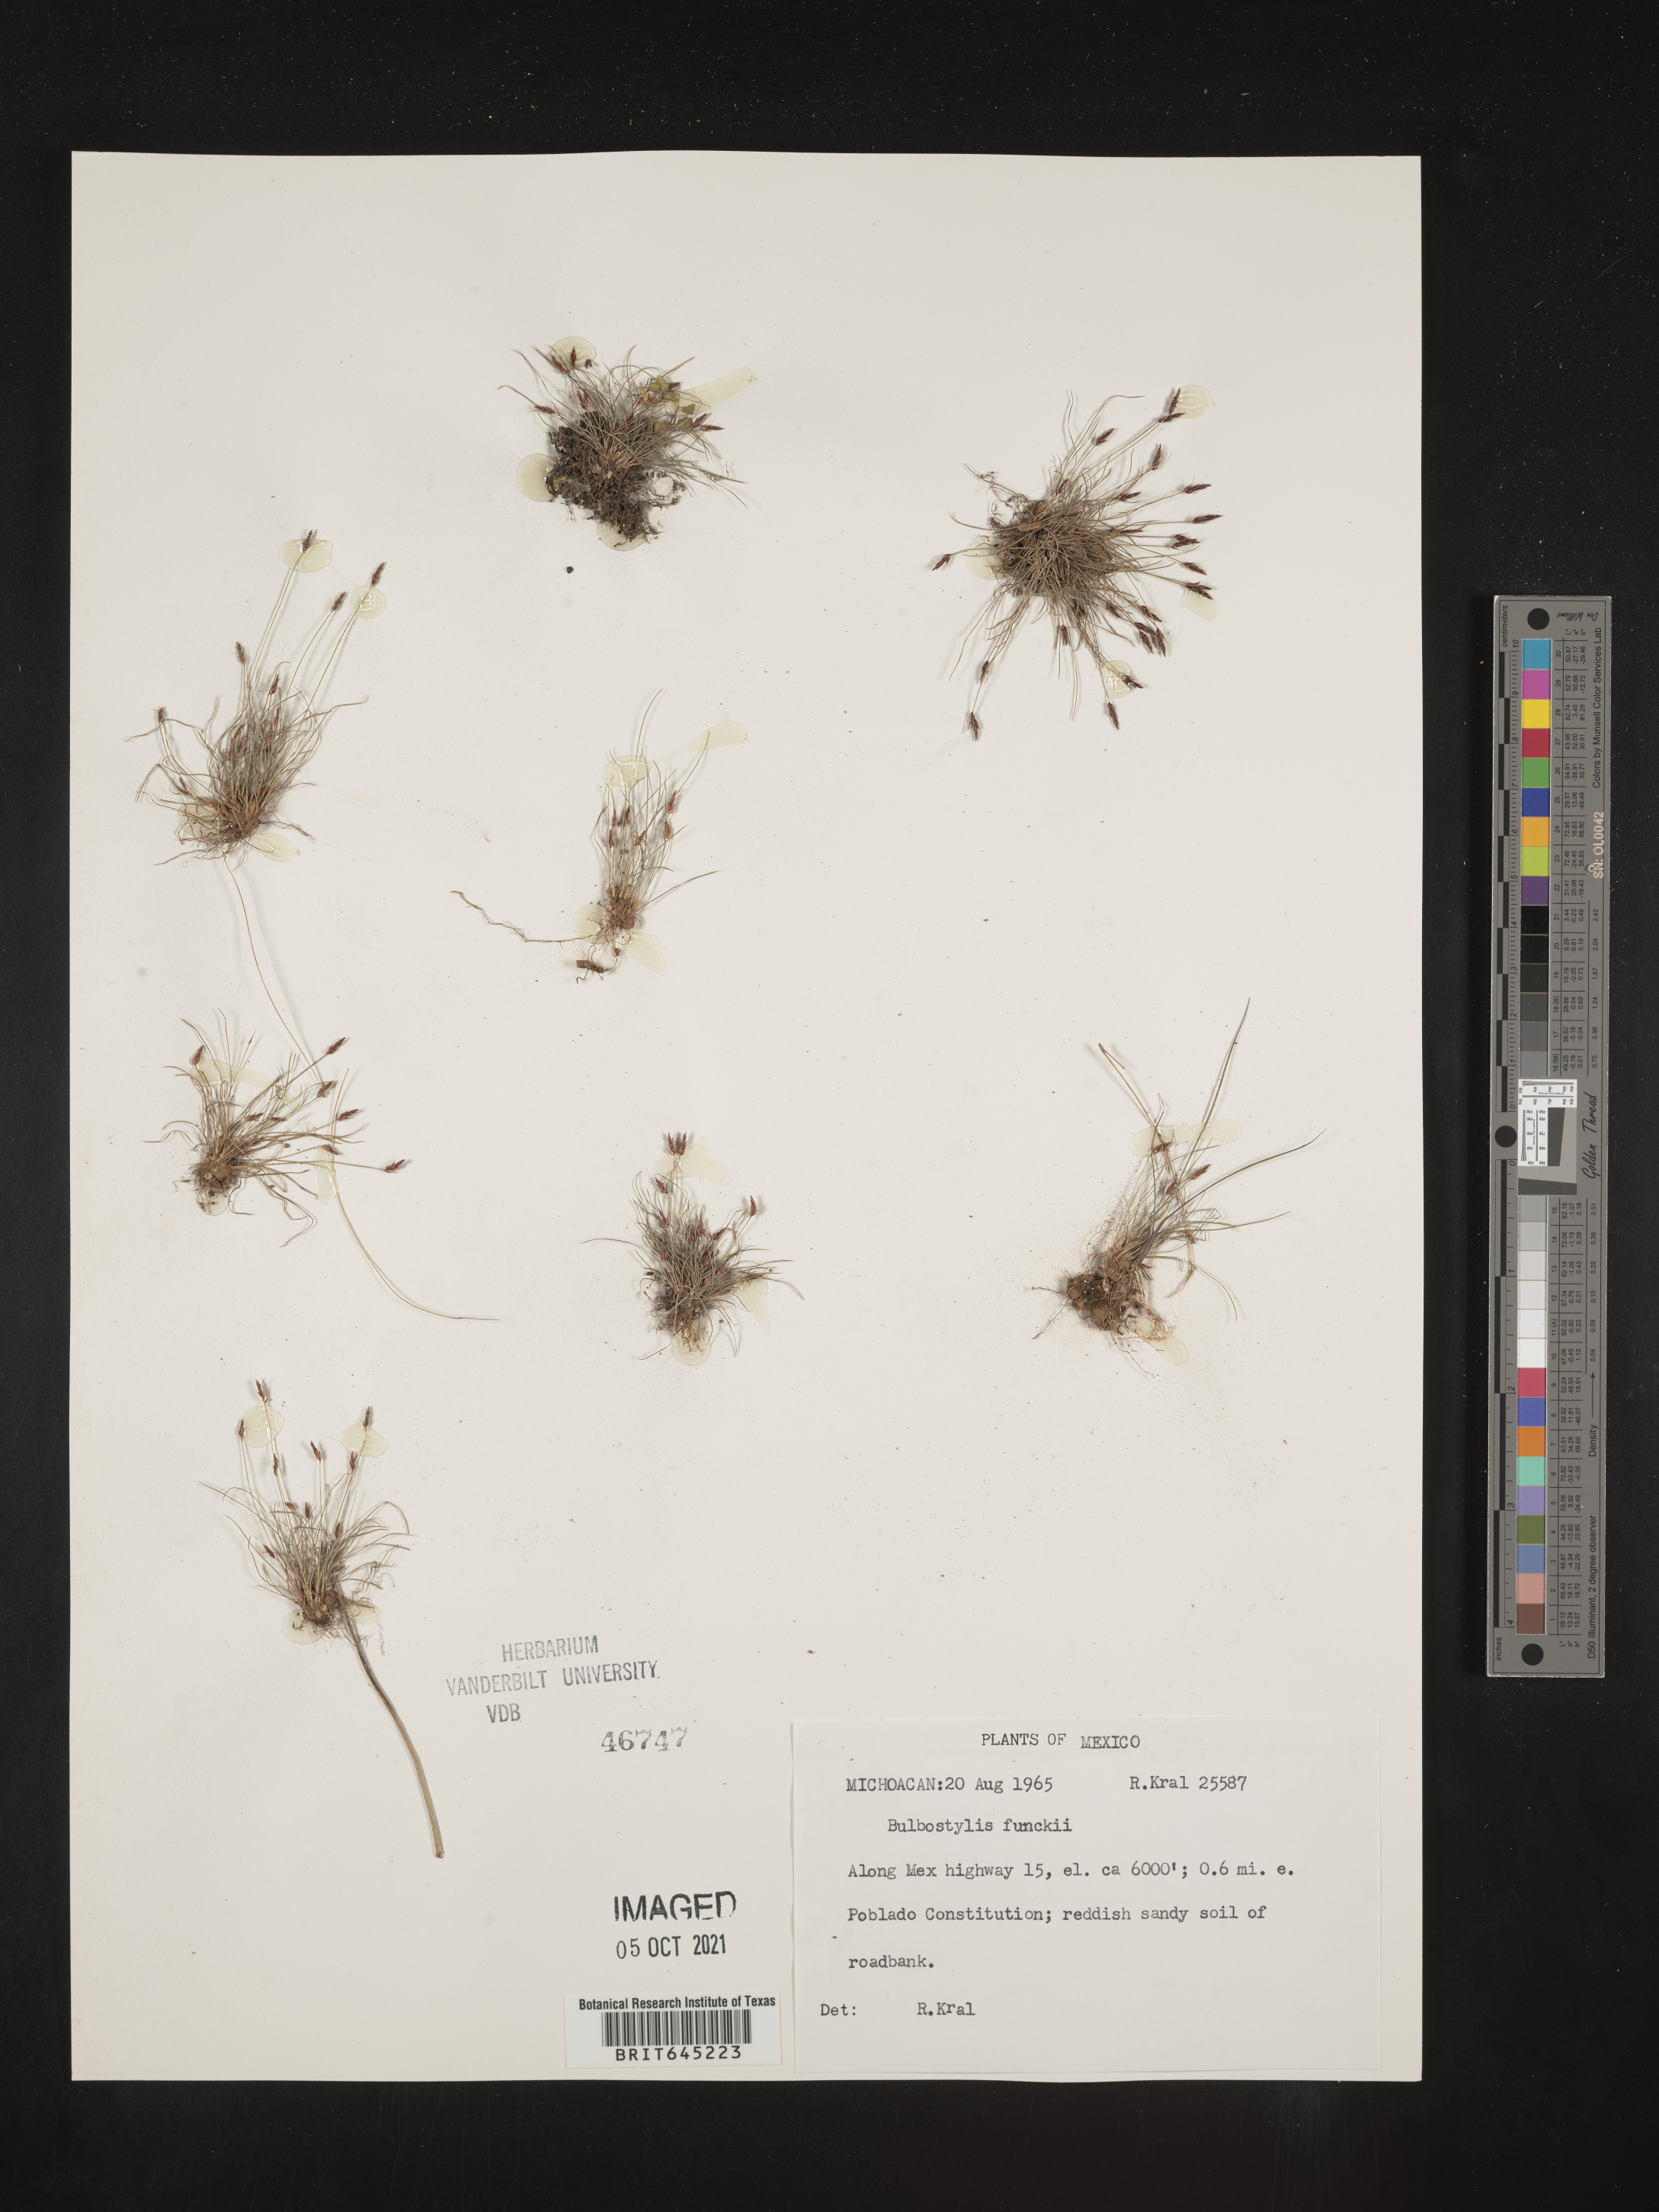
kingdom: Plantae
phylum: Tracheophyta
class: Liliopsida
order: Poales
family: Cyperaceae
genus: Bulbostylis
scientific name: Bulbostylis funckii
